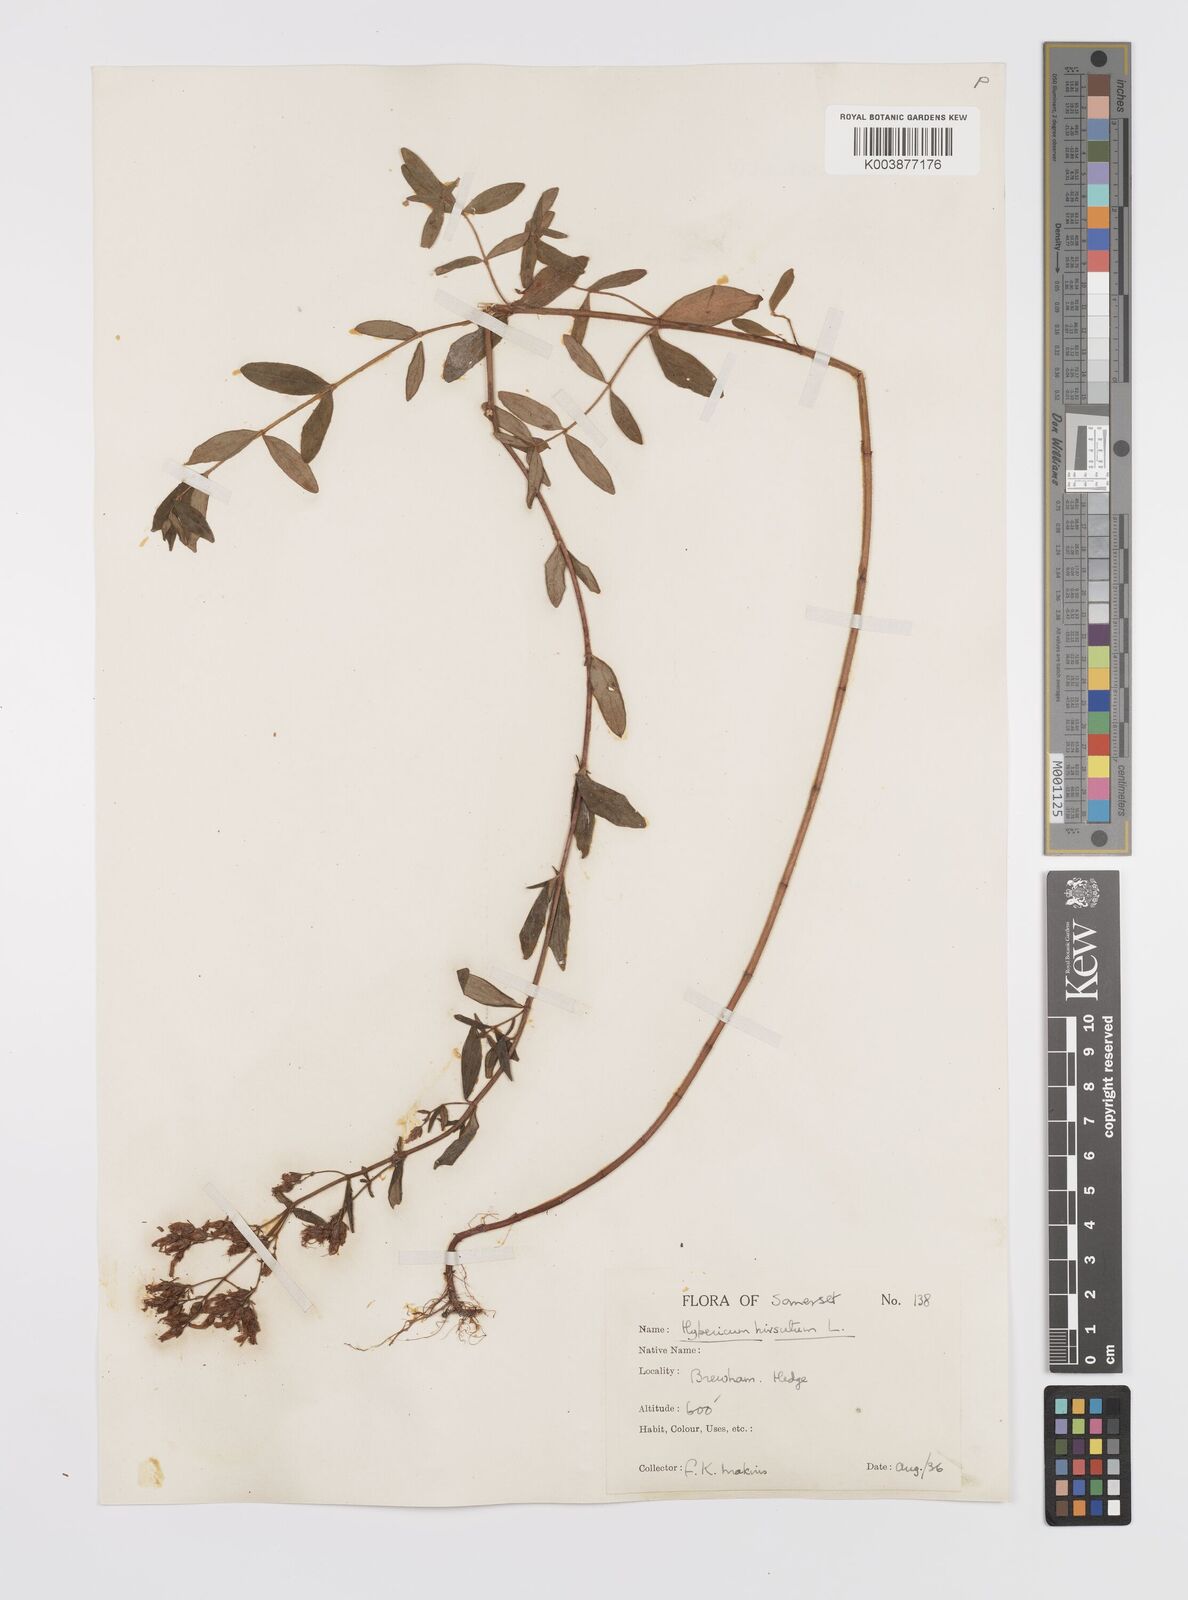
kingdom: Plantae
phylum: Tracheophyta
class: Magnoliopsida
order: Malpighiales
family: Hypericaceae
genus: Hypericum
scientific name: Hypericum hirsutum
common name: Hairy st. john's-wort
